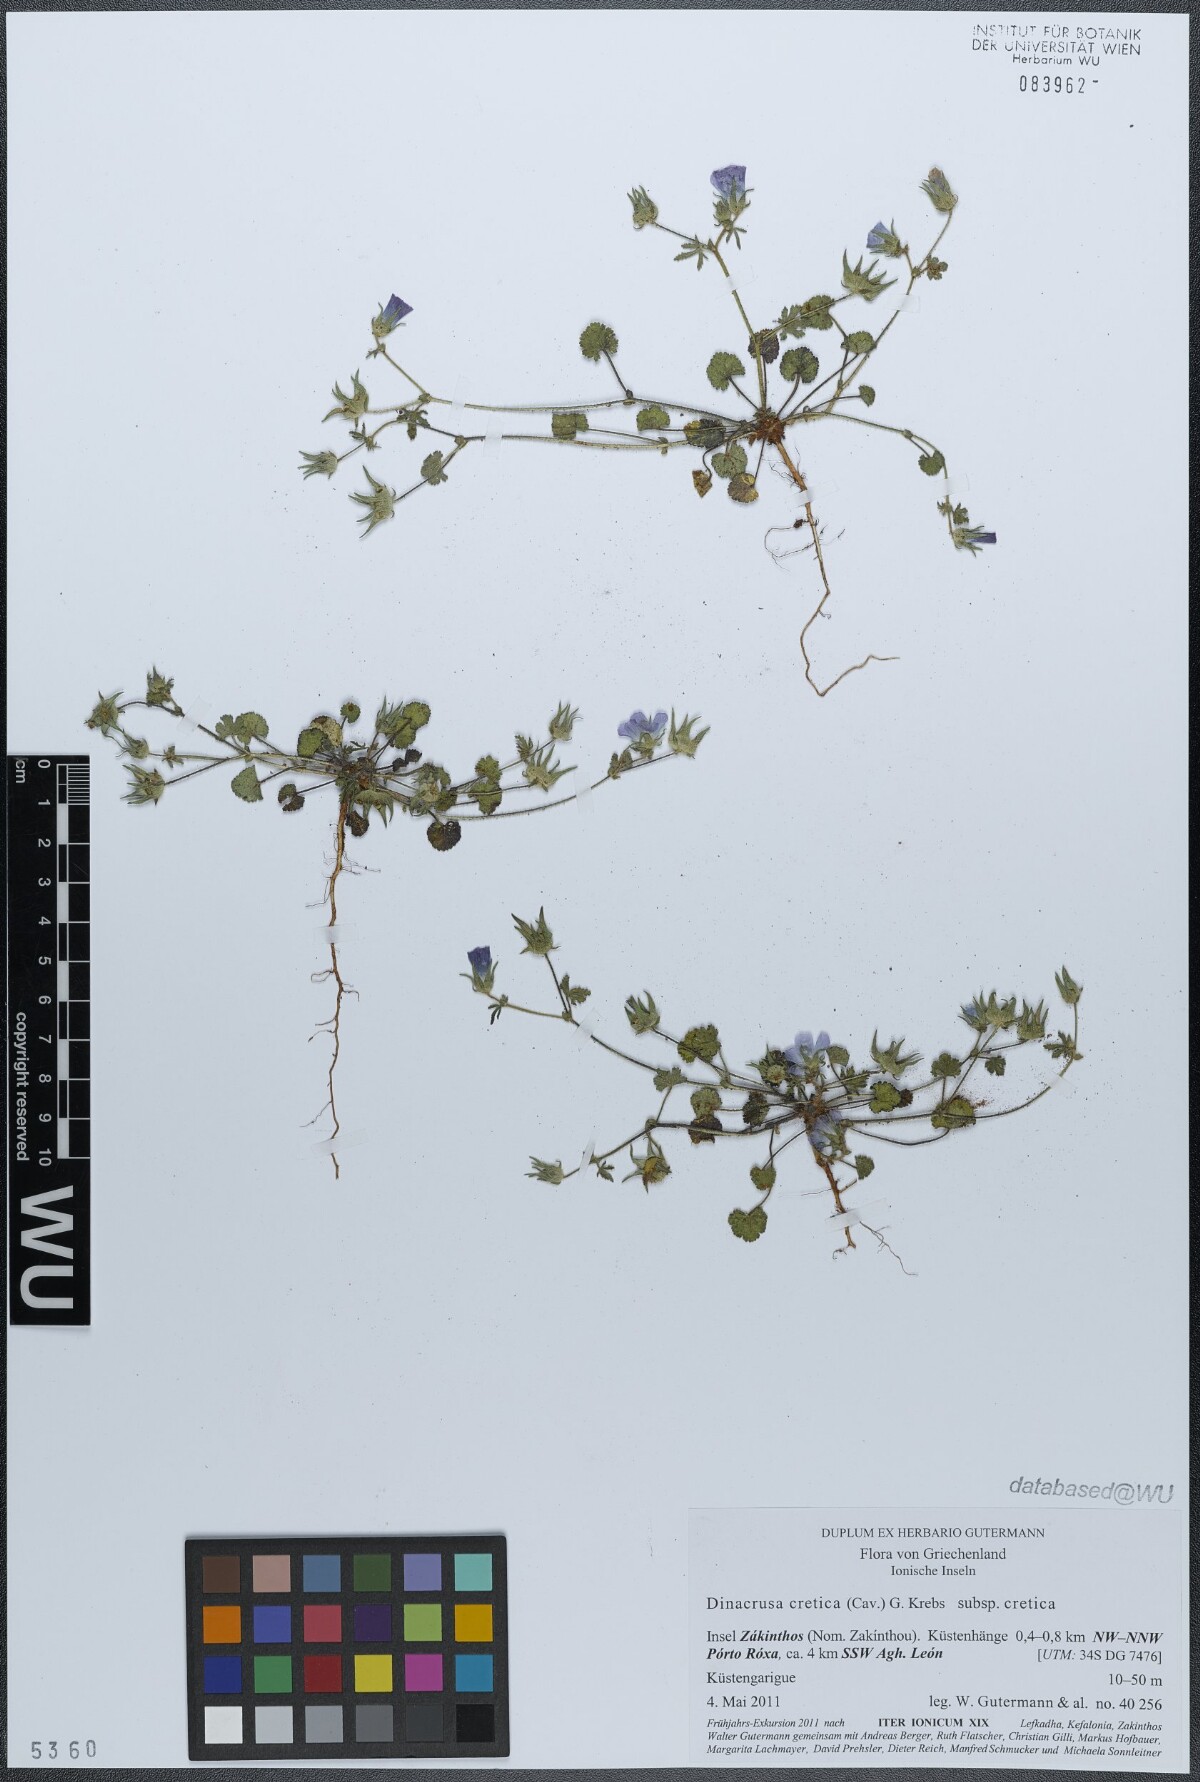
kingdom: Plantae
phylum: Tracheophyta
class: Magnoliopsida
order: Malvales
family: Malvaceae
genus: Malva
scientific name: Malva cretica
